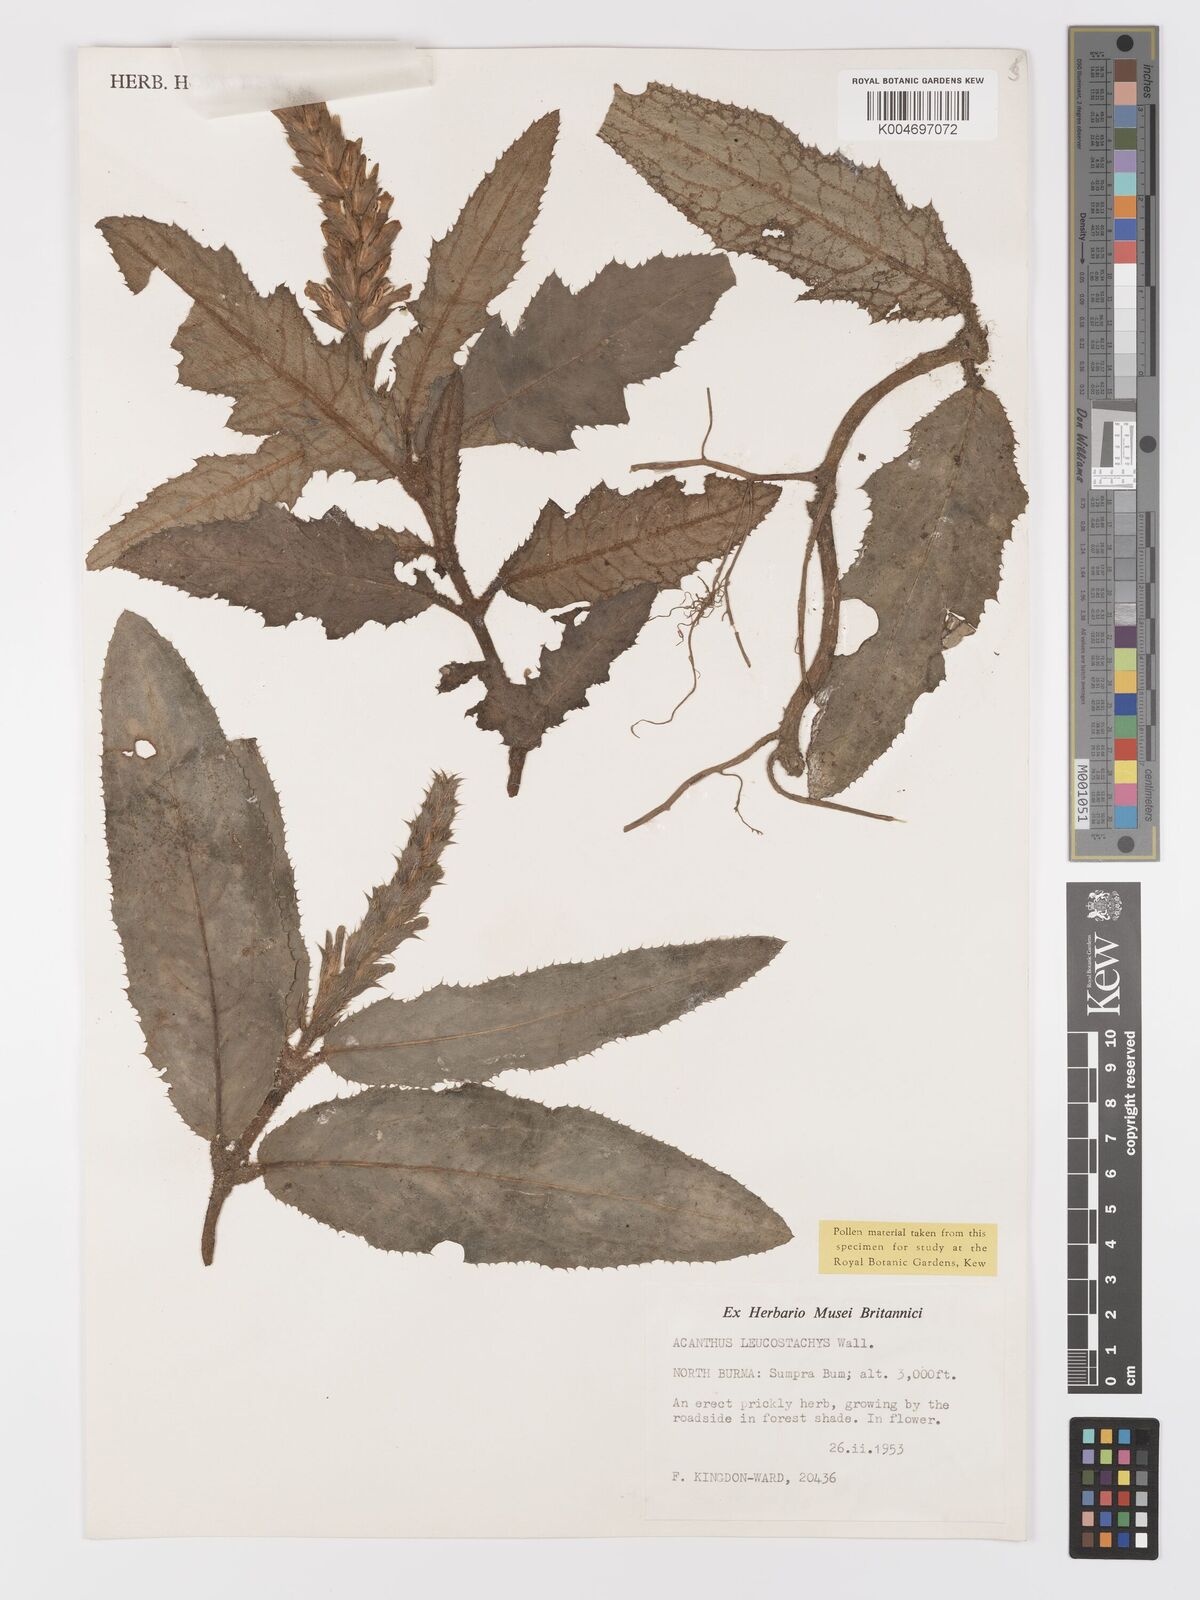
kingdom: Plantae
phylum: Tracheophyta
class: Magnoliopsida
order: Lamiales
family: Acanthaceae
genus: Acanthus
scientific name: Acanthus leucostachyus
